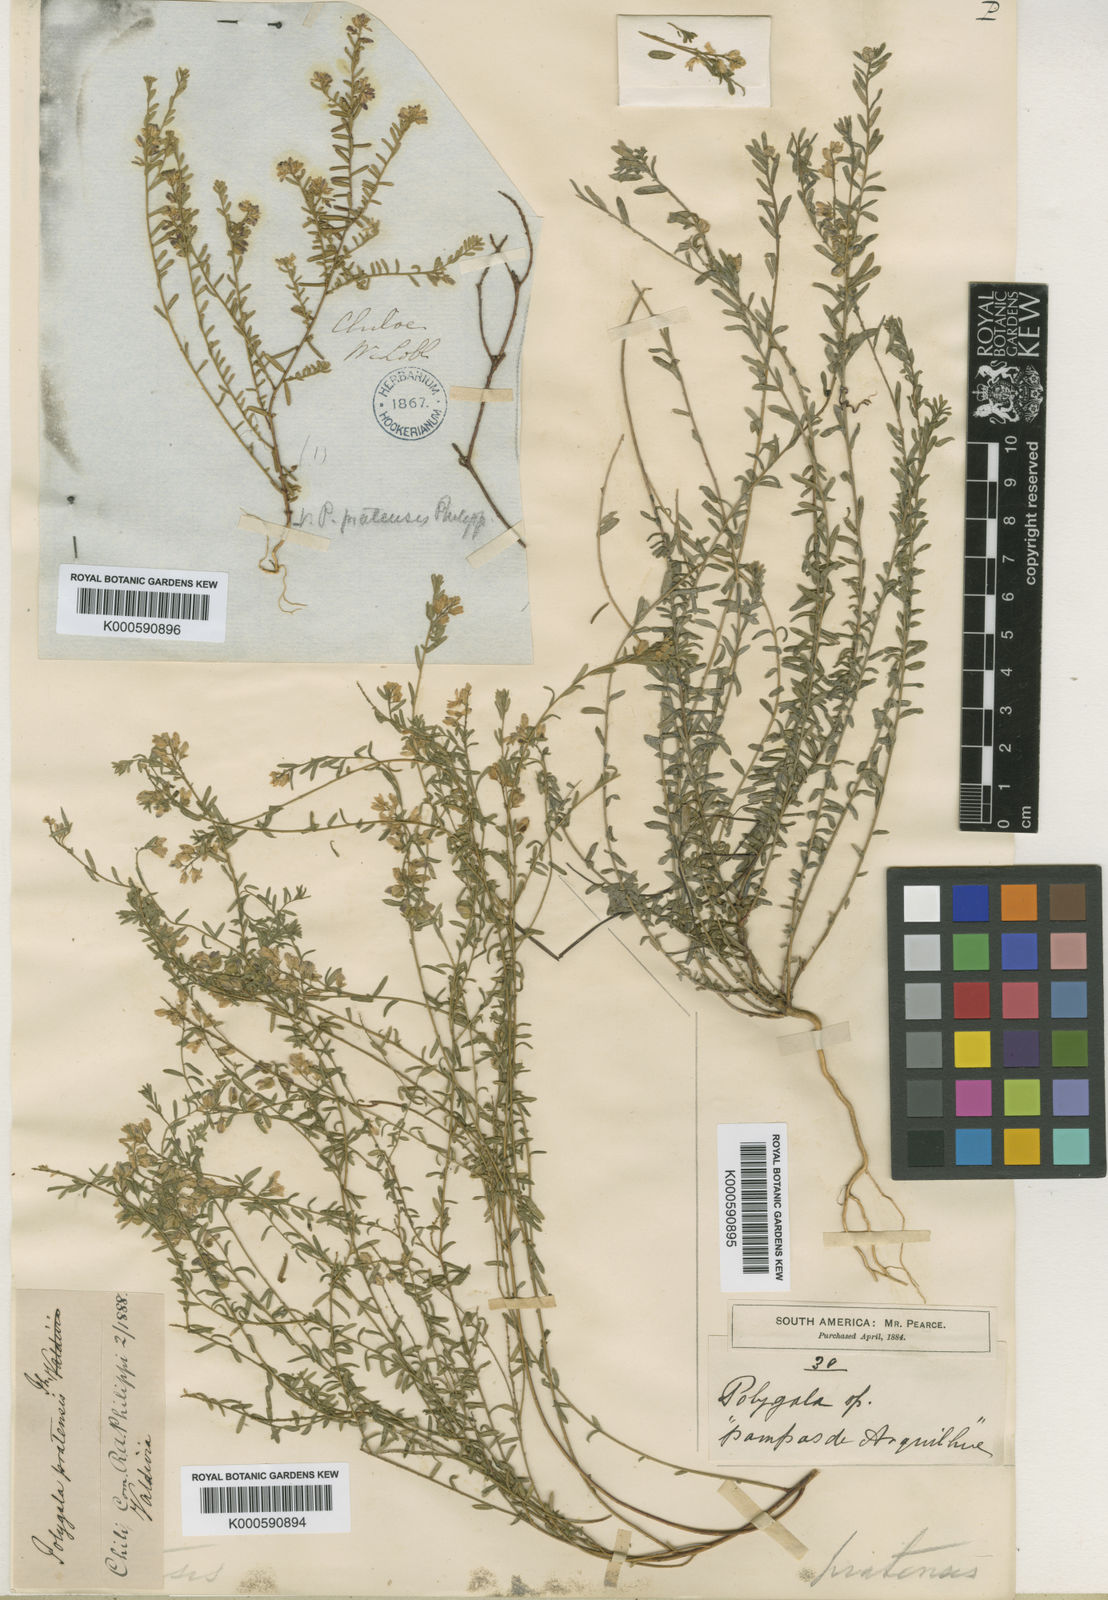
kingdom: Plantae
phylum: Tracheophyta
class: Magnoliopsida
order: Fabales
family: Polygalaceae
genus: Polygala
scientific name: Polygala gnidioides
